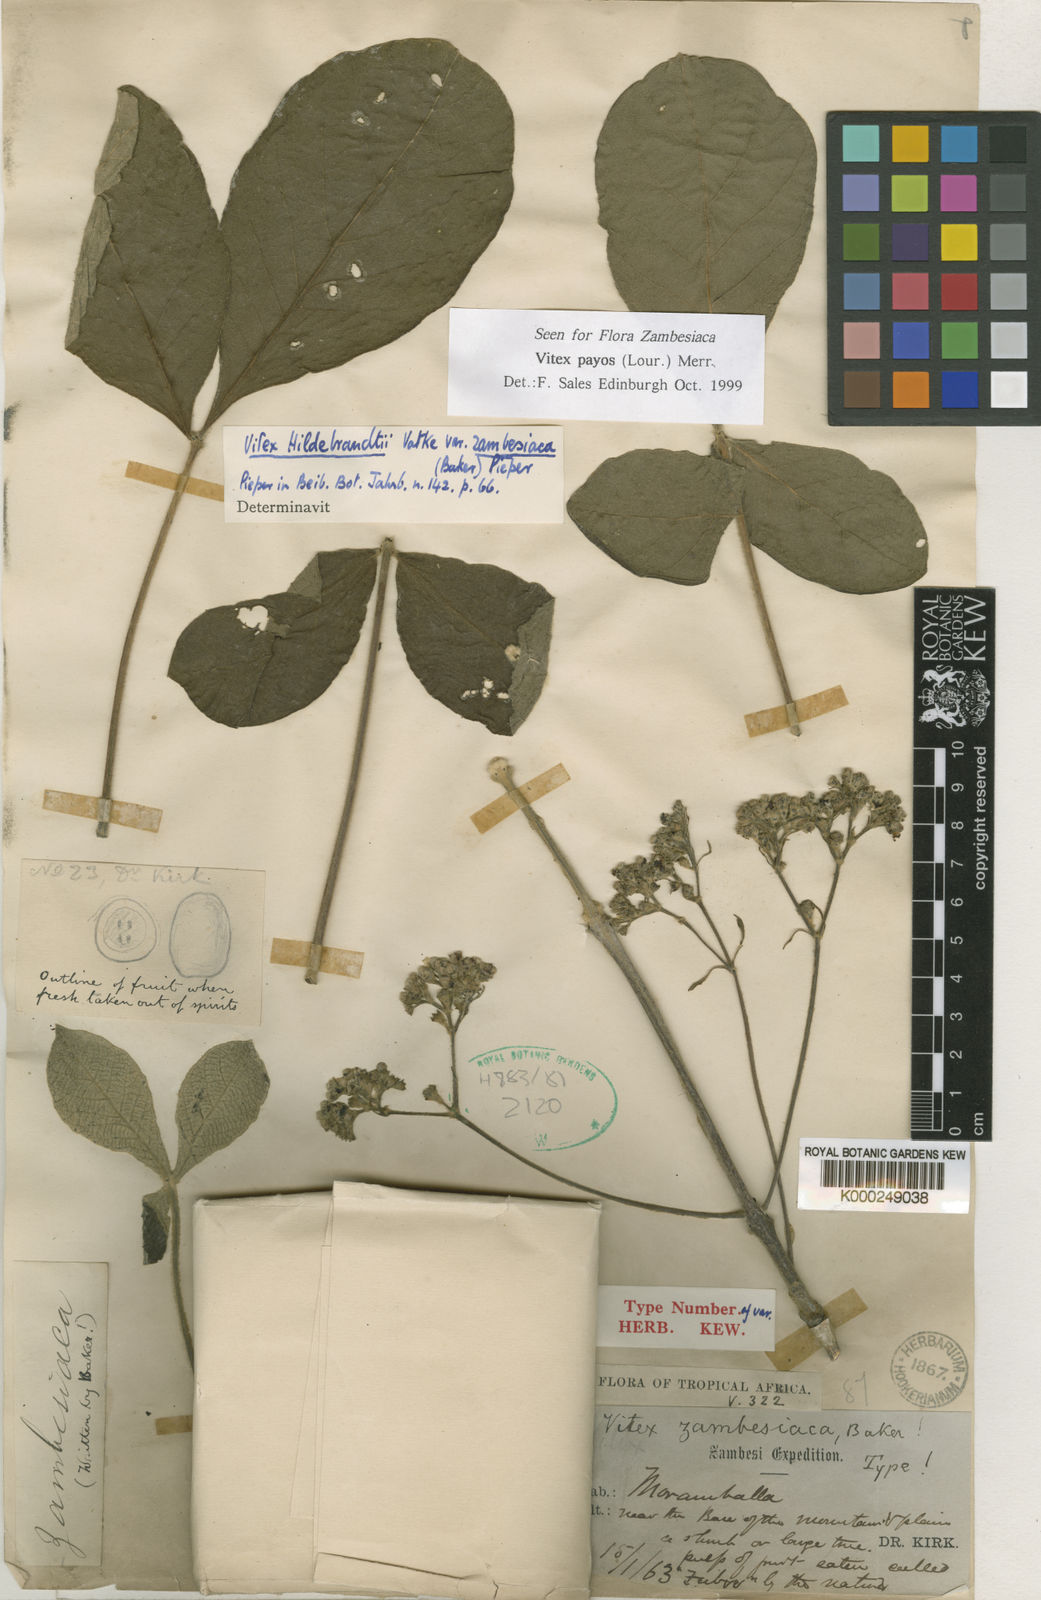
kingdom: Plantae
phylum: Tracheophyta
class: Magnoliopsida
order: Lamiales
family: Lamiaceae
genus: Vitex
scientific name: Vitex payos
